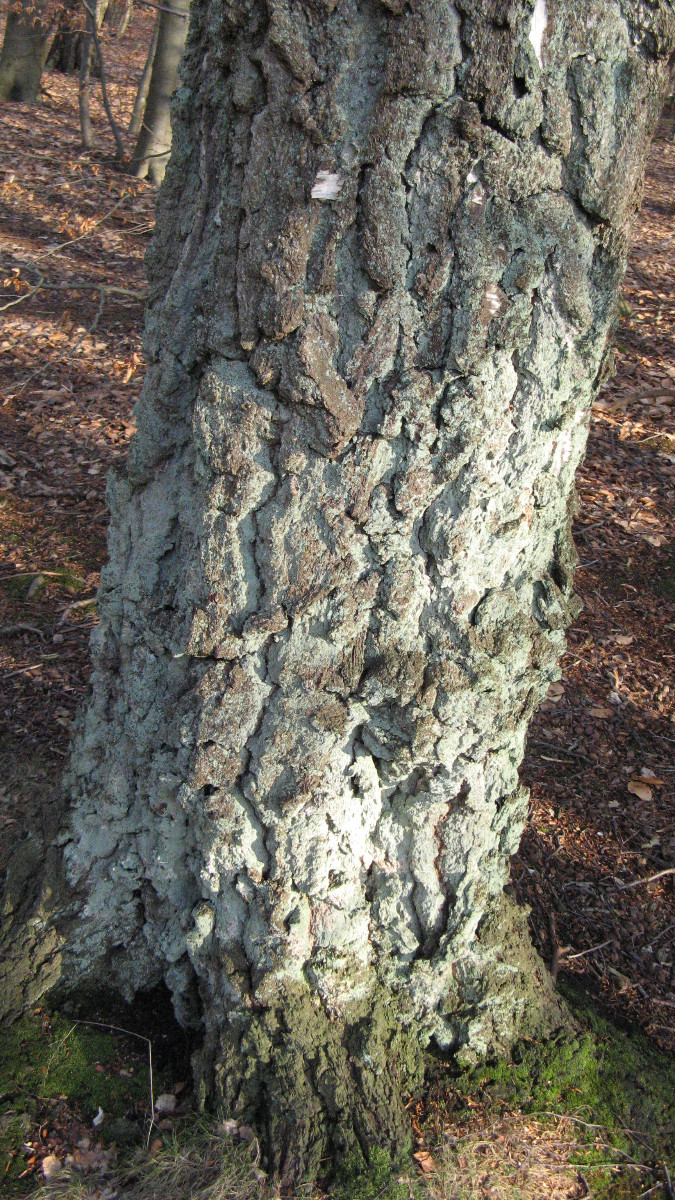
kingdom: Fungi
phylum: Ascomycota
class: Lecanoromycetes
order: Lecanorales
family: Stereocaulaceae
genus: Lepraria
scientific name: Lepraria
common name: støvlav
